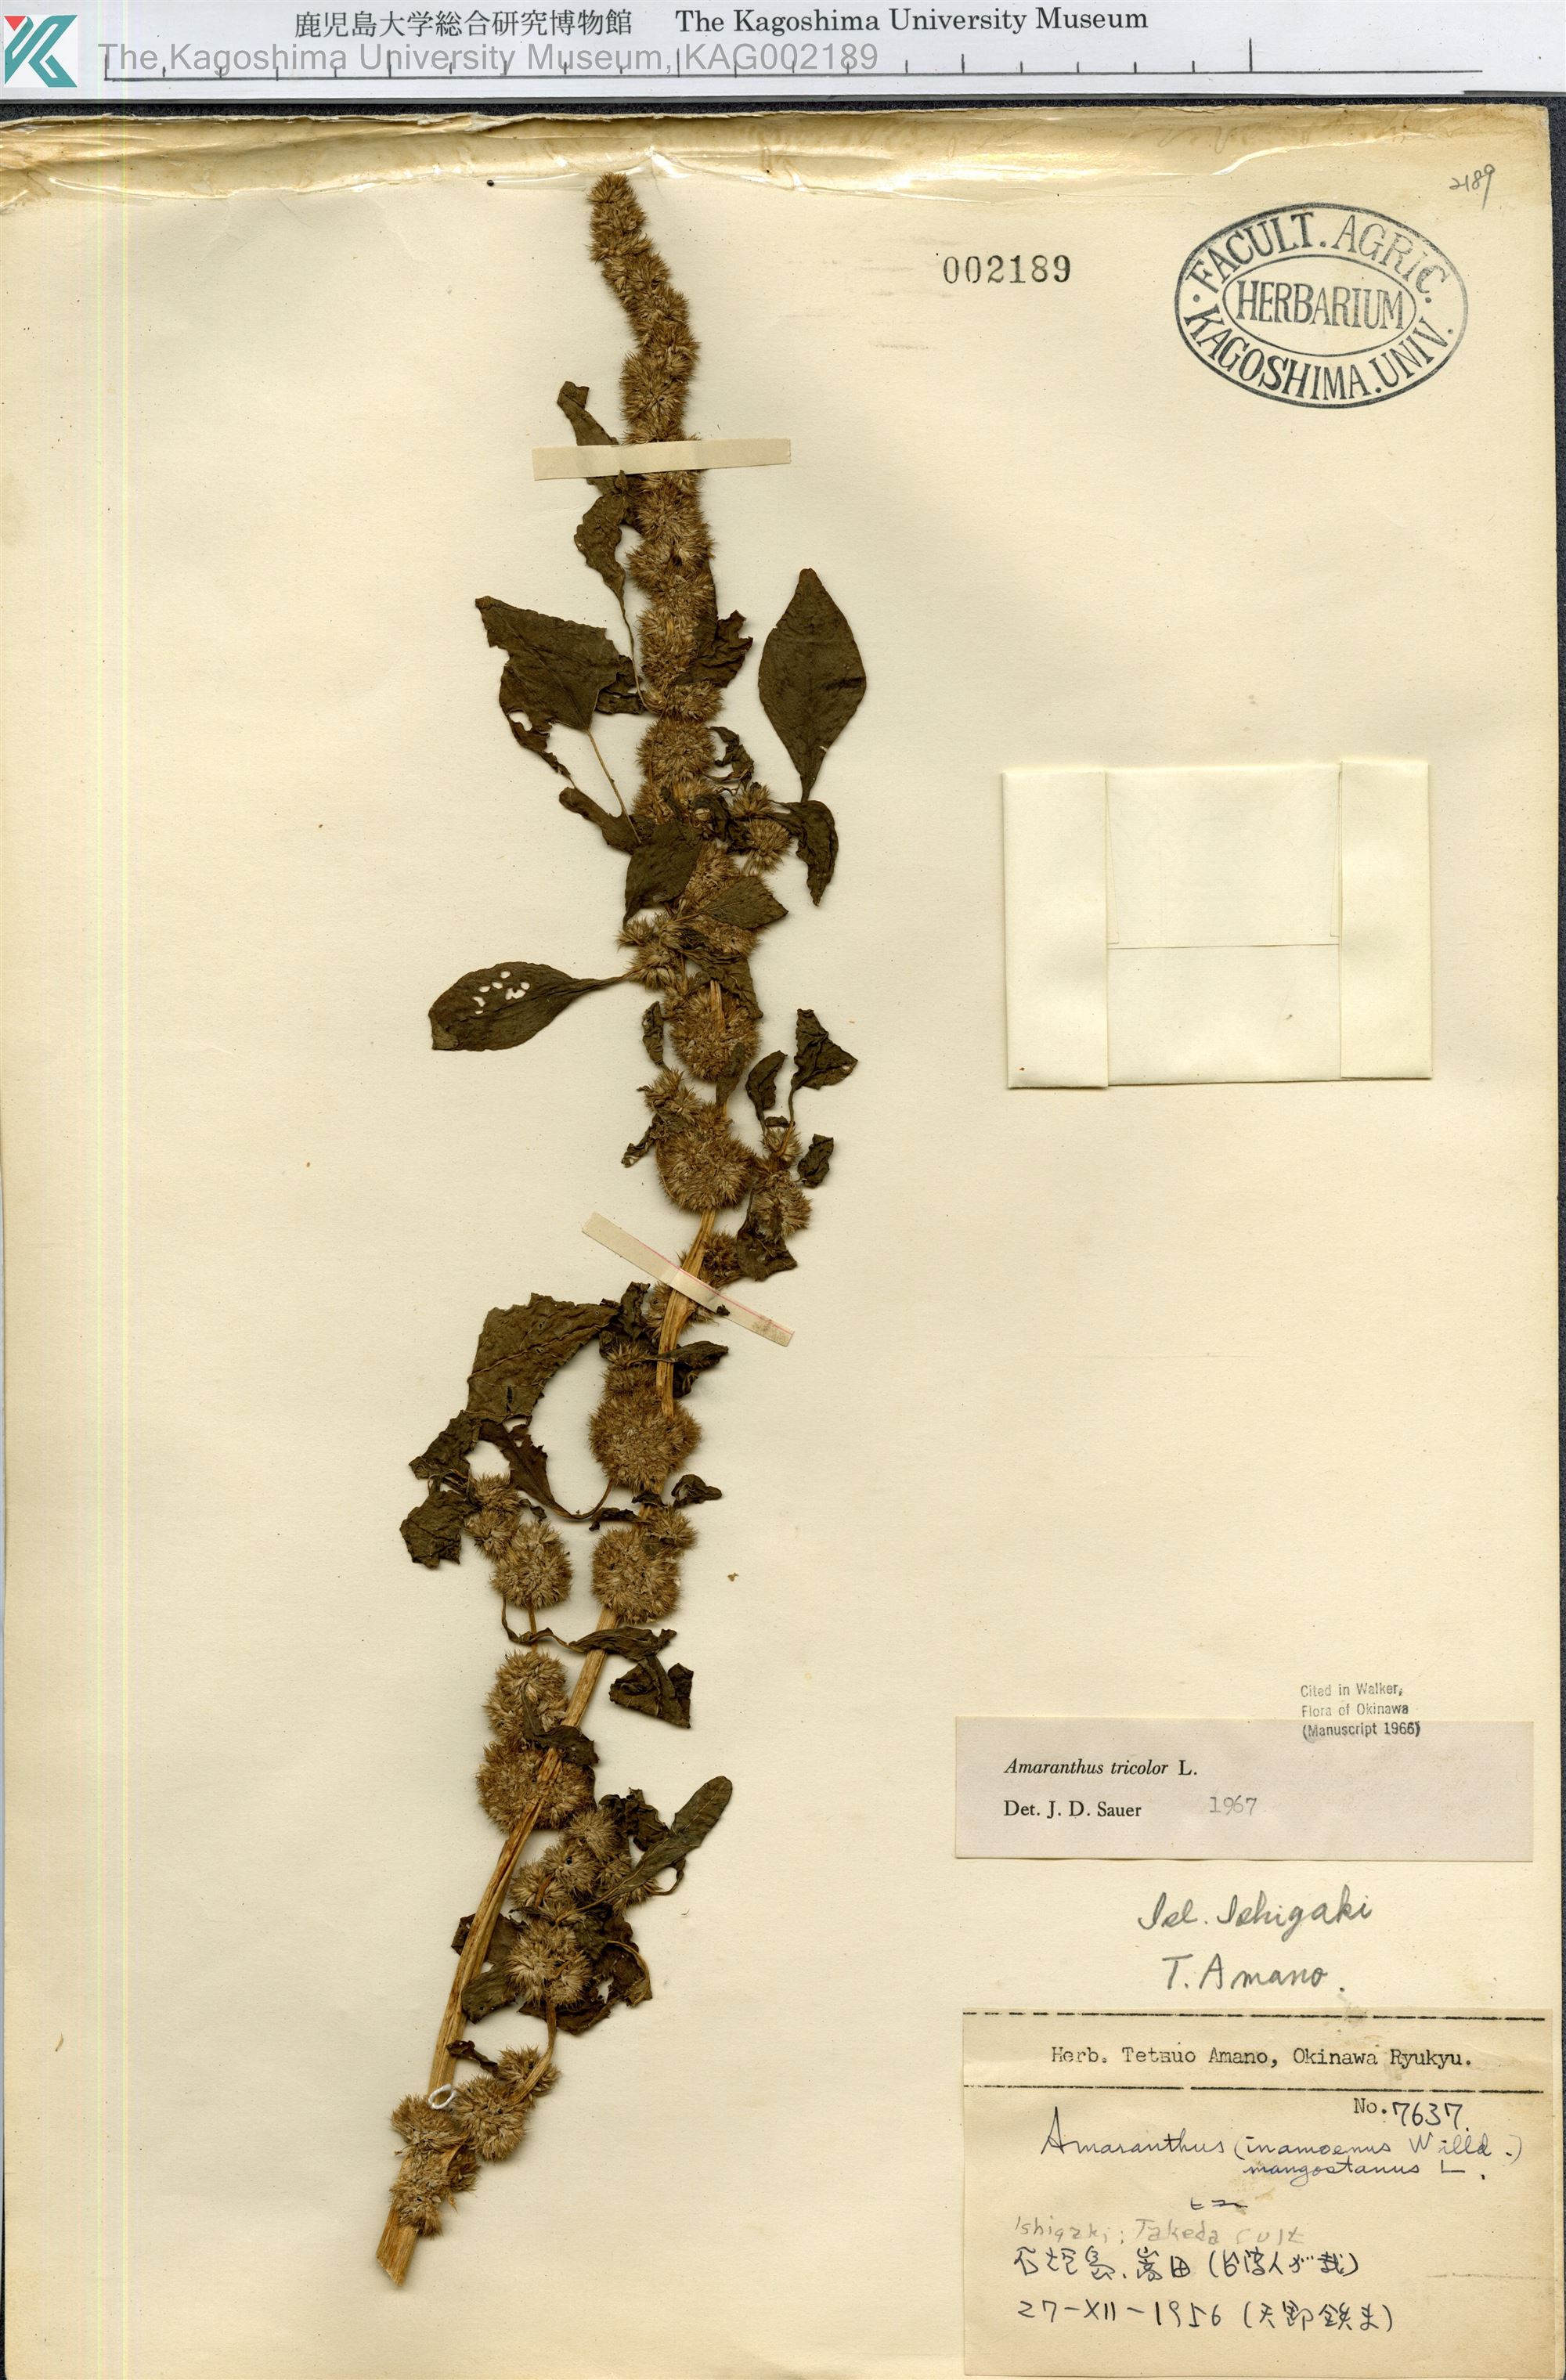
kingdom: Plantae
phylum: Tracheophyta
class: Magnoliopsida
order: Caryophyllales
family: Amaranthaceae
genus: Amaranthus
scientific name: Amaranthus tricolor
